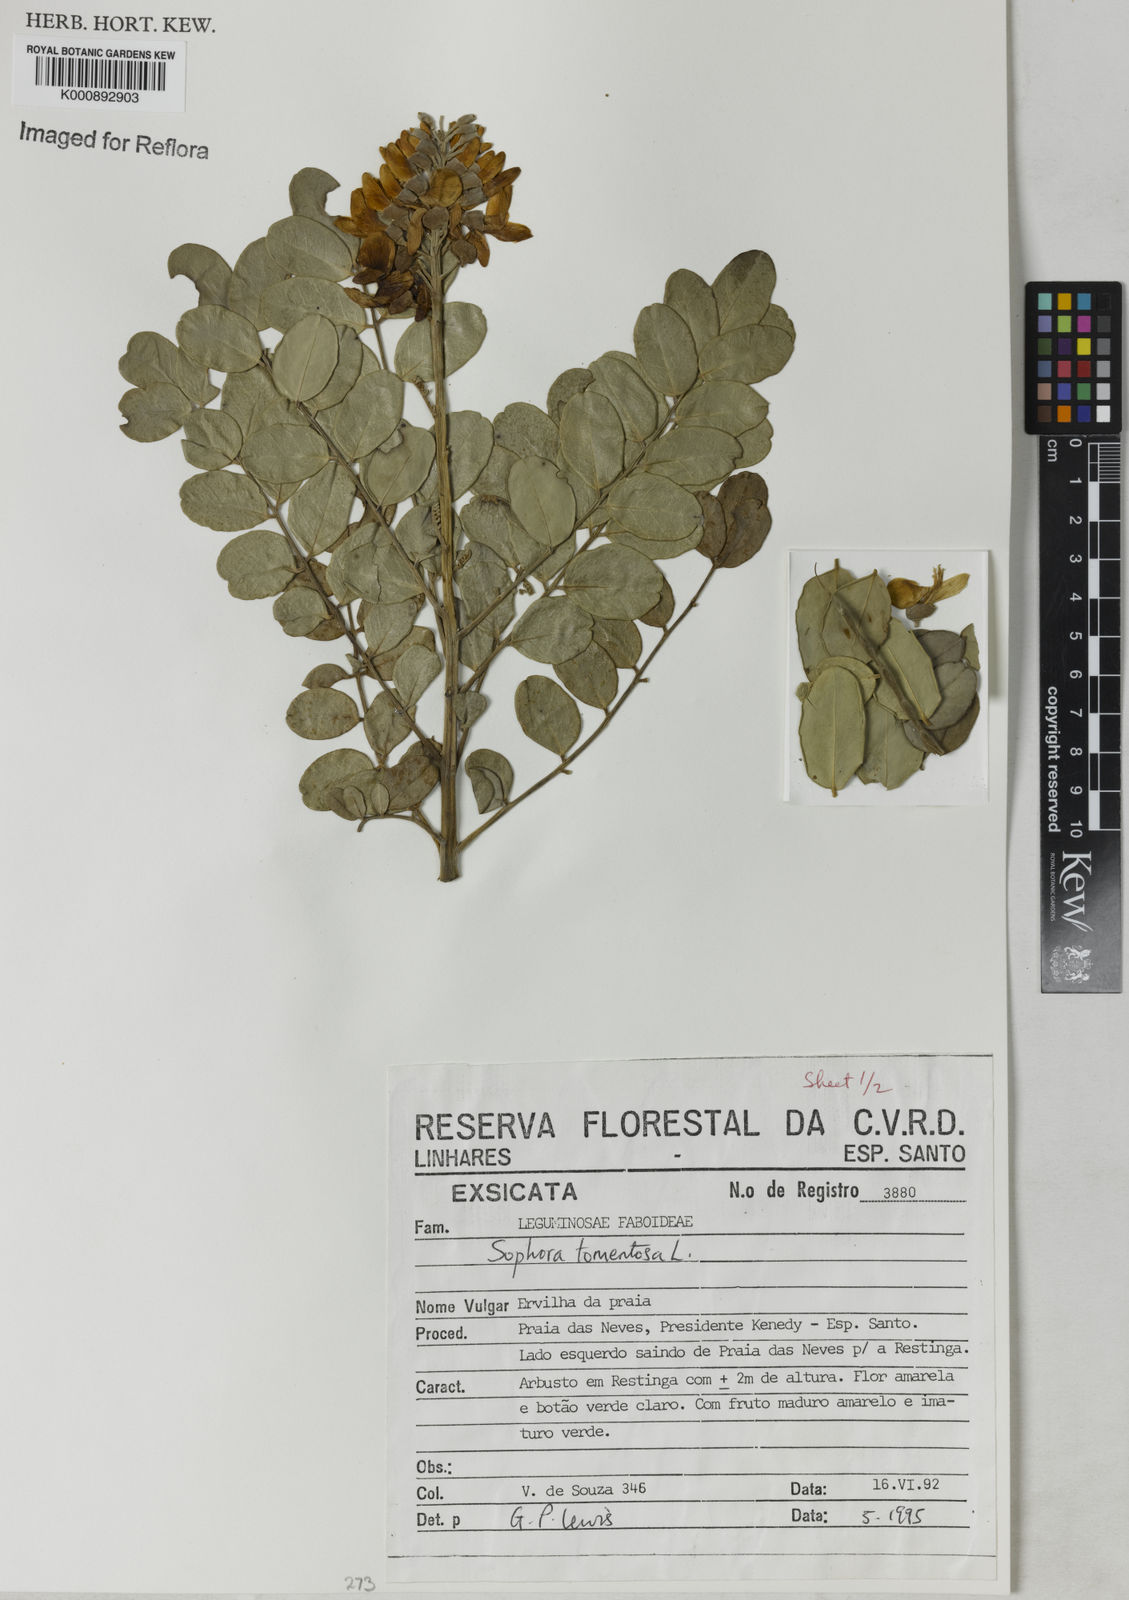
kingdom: Plantae
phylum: Tracheophyta
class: Magnoliopsida
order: Fabales
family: Fabaceae
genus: Sophora
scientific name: Sophora tomentosa
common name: Yellow necklacepod
